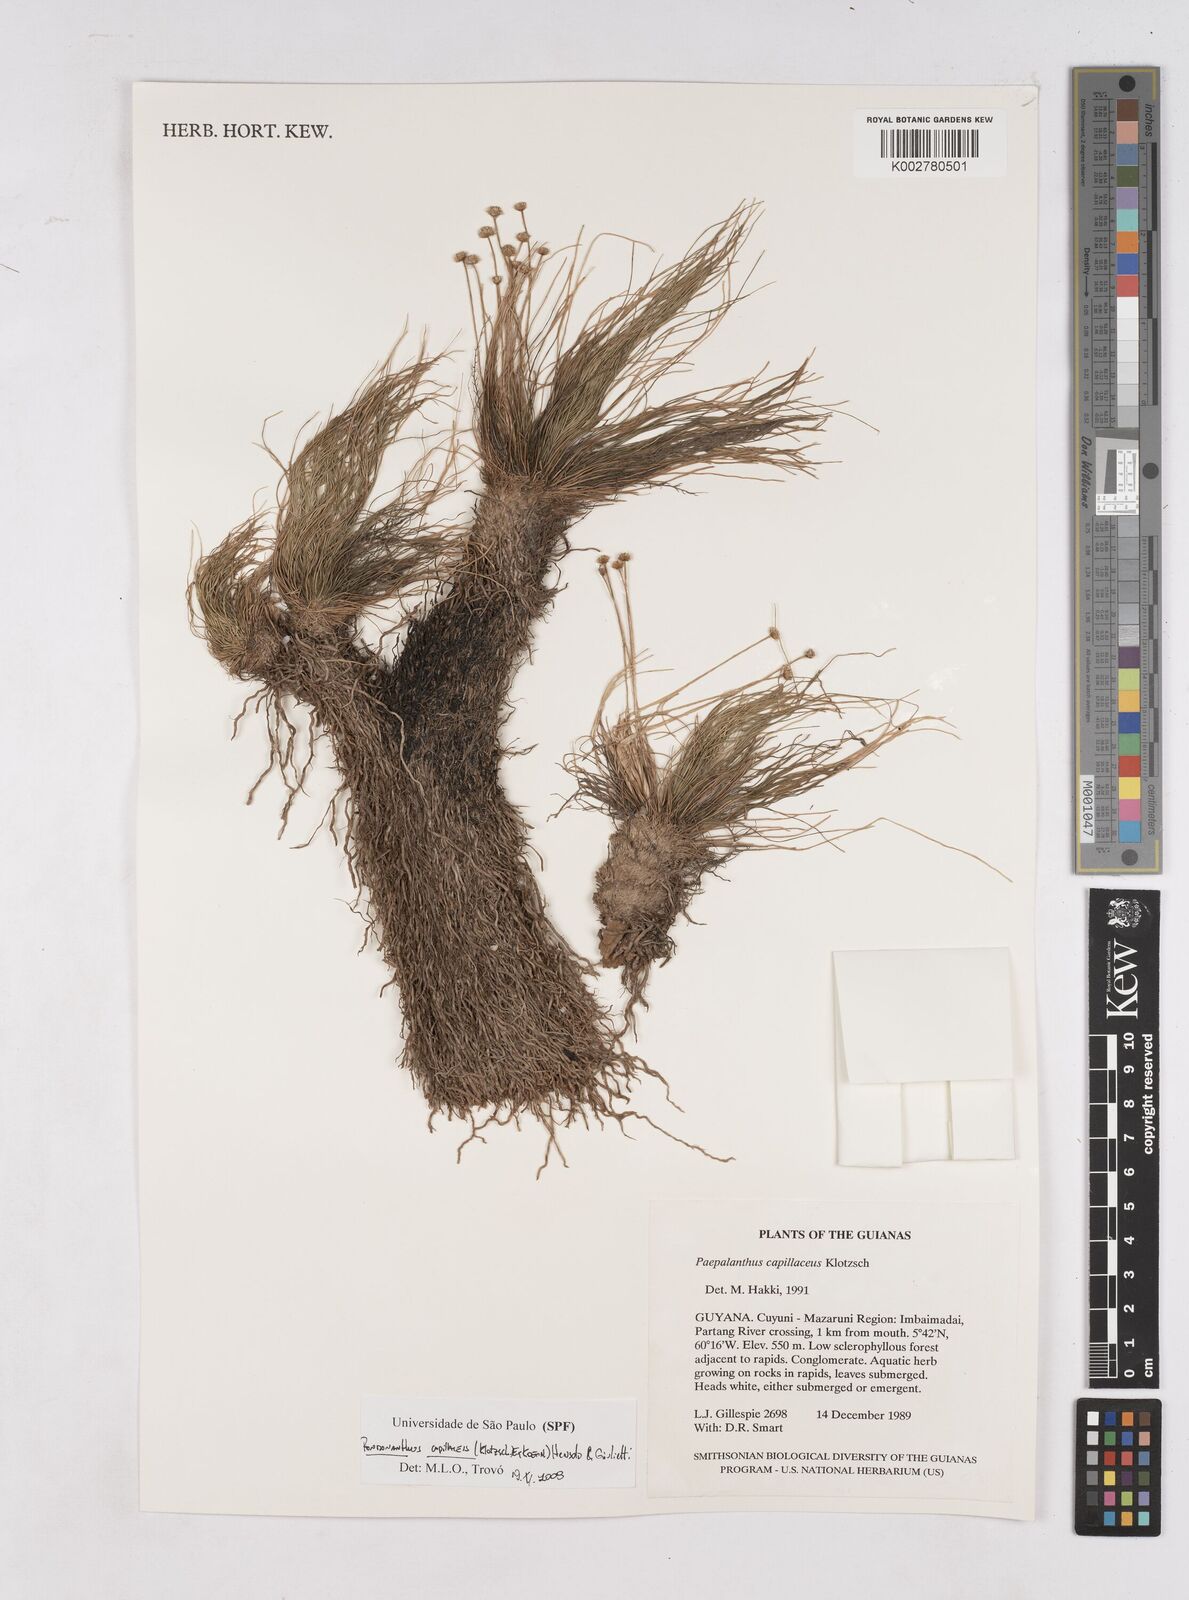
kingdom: Plantae
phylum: Tracheophyta
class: Liliopsida
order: Poales
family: Eriocaulaceae
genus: Rondonanthus
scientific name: Rondonanthus capillaceus
